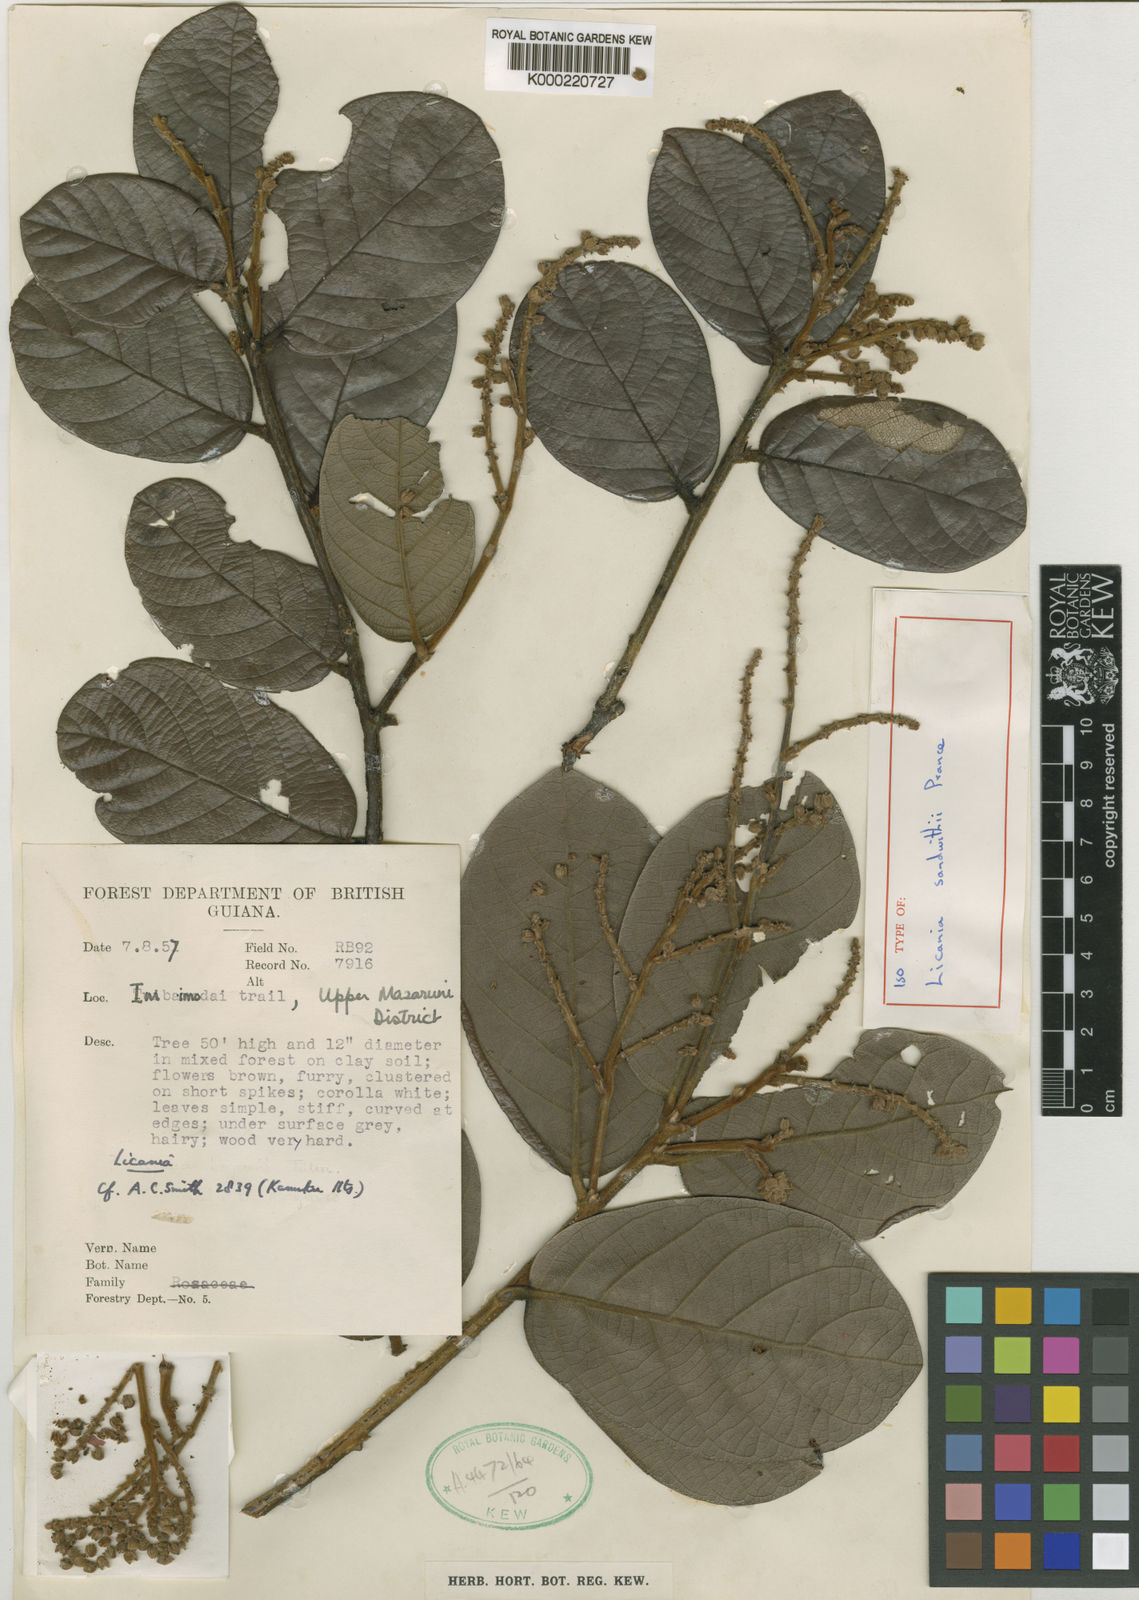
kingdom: Plantae
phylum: Tracheophyta
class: Magnoliopsida
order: Malpighiales
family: Chrysobalanaceae
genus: Licania
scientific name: Licania sandwithii
